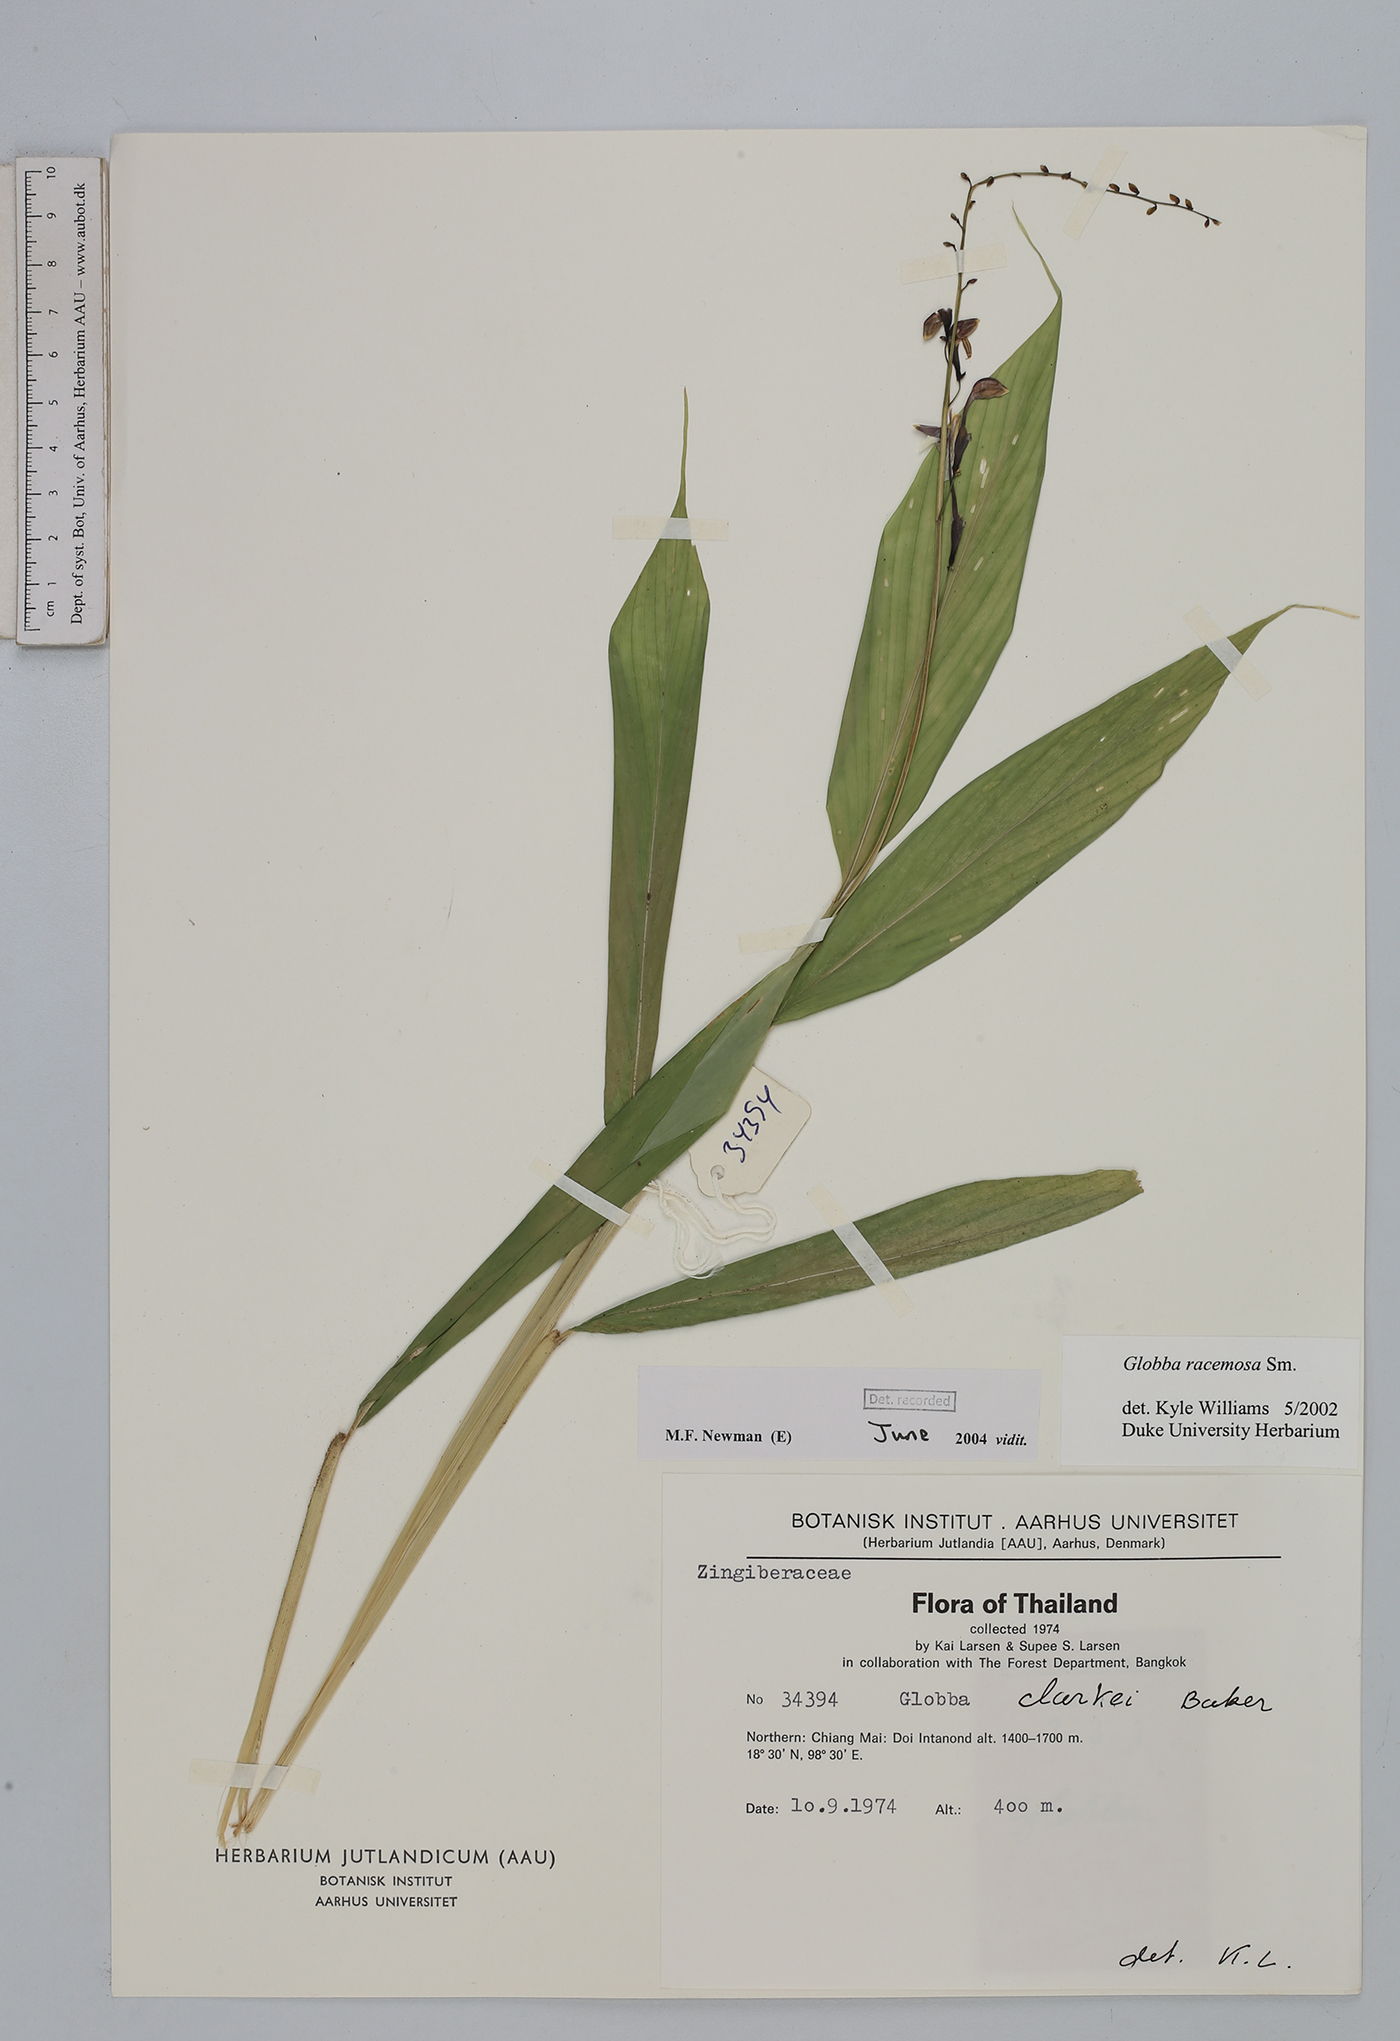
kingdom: Plantae
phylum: Tracheophyta
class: Liliopsida
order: Zingiberales
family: Zingiberaceae
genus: Globba
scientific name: Globba racemosa
